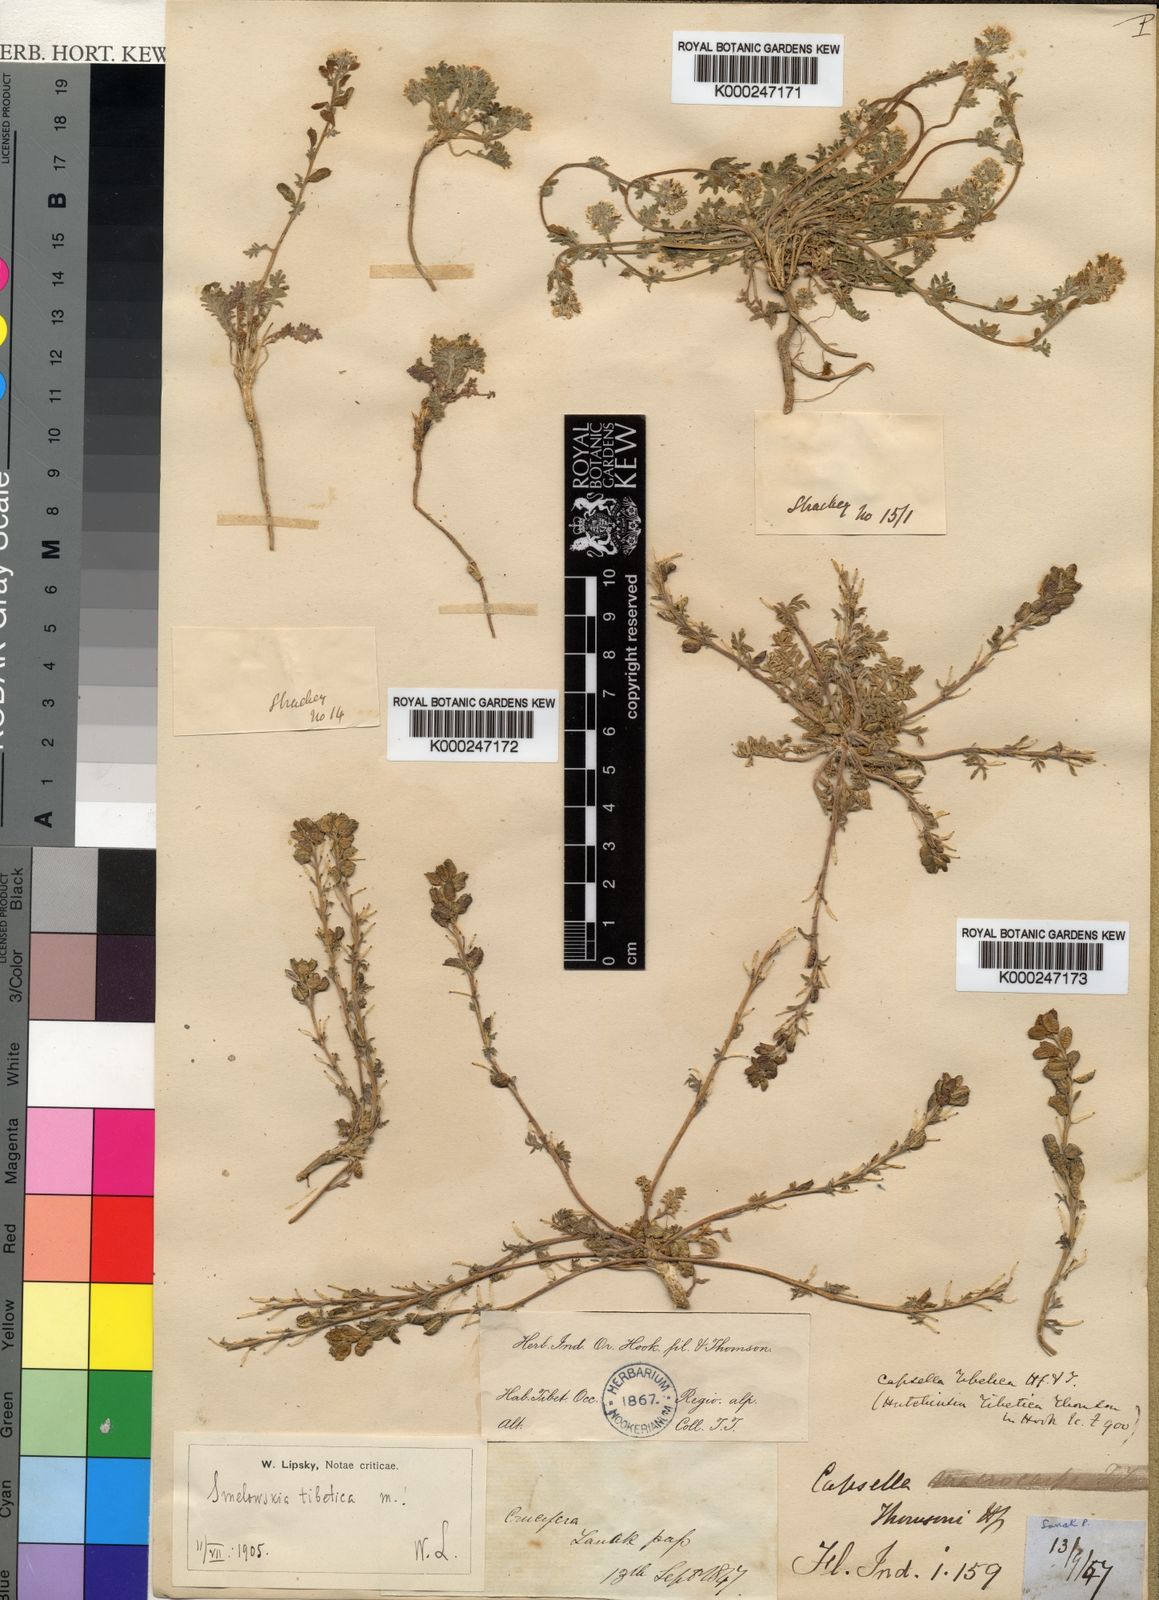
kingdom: Plantae
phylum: Tracheophyta
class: Magnoliopsida
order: Brassicales
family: Brassicaceae
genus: Smelowskia
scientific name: Smelowskia tibetica
